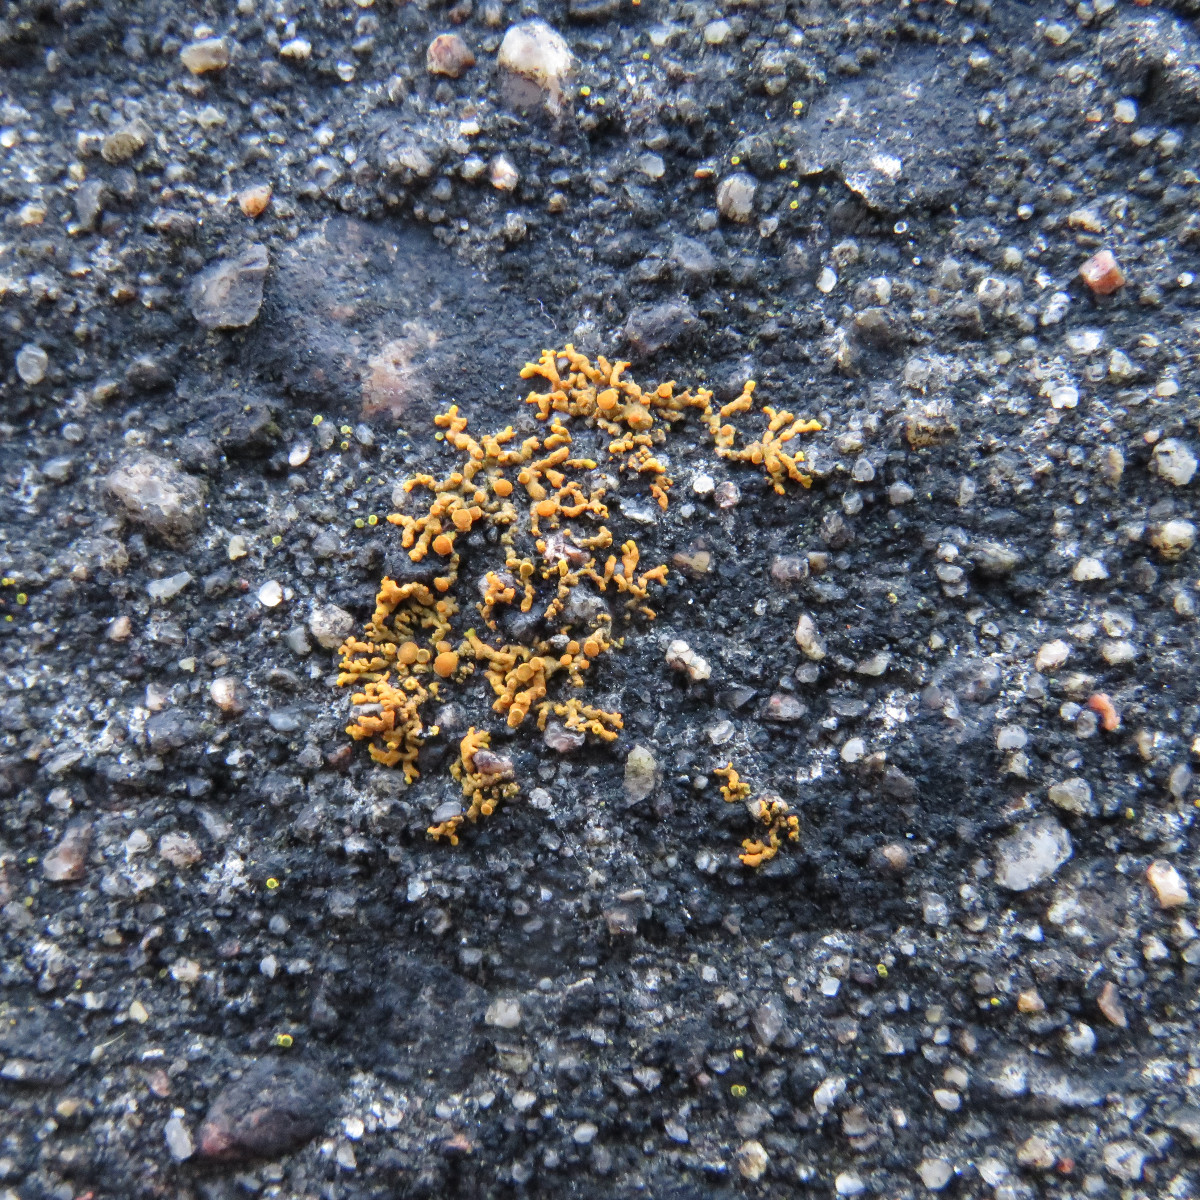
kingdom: Fungi
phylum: Ascomycota
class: Lecanoromycetes
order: Teloschistales
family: Teloschistaceae
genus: Xanthoria
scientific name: Xanthoria elegans
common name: fjeld-væggelav
